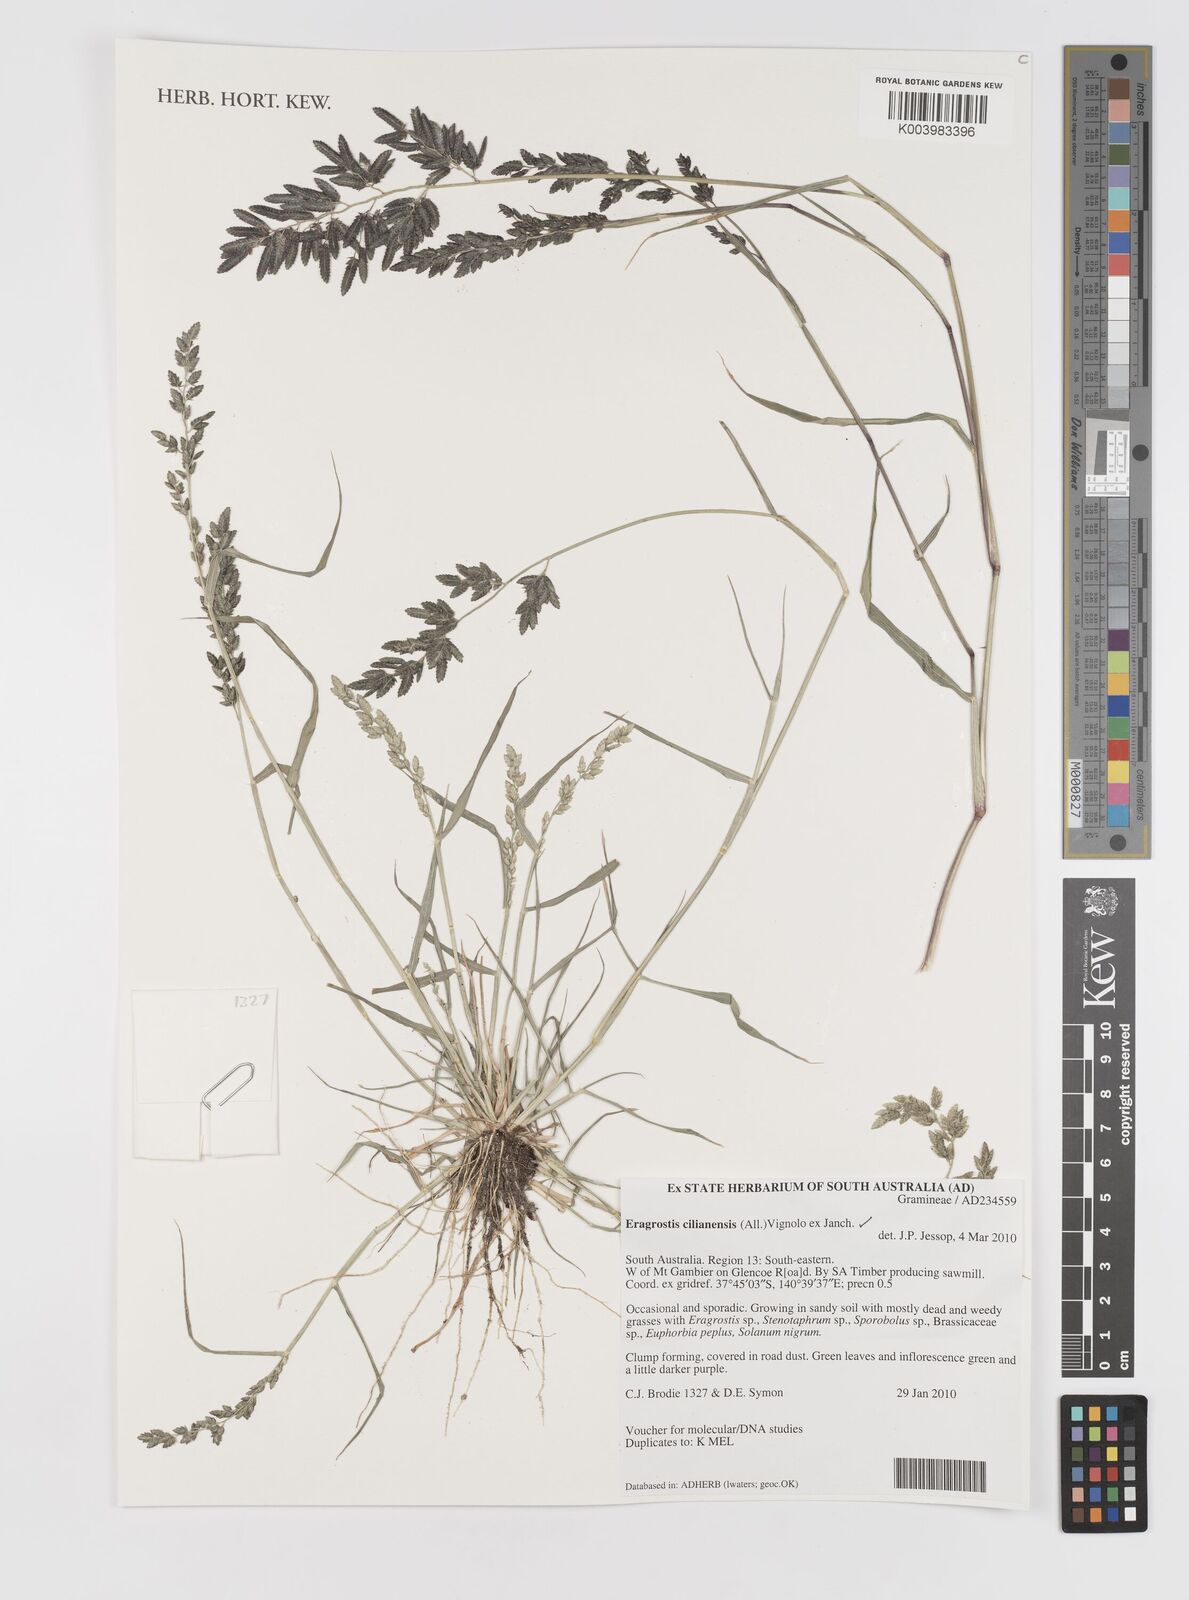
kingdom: Plantae
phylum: Tracheophyta
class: Liliopsida
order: Poales
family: Poaceae
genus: Eragrostis
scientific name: Eragrostis cilianensis
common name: Stinkgrass
